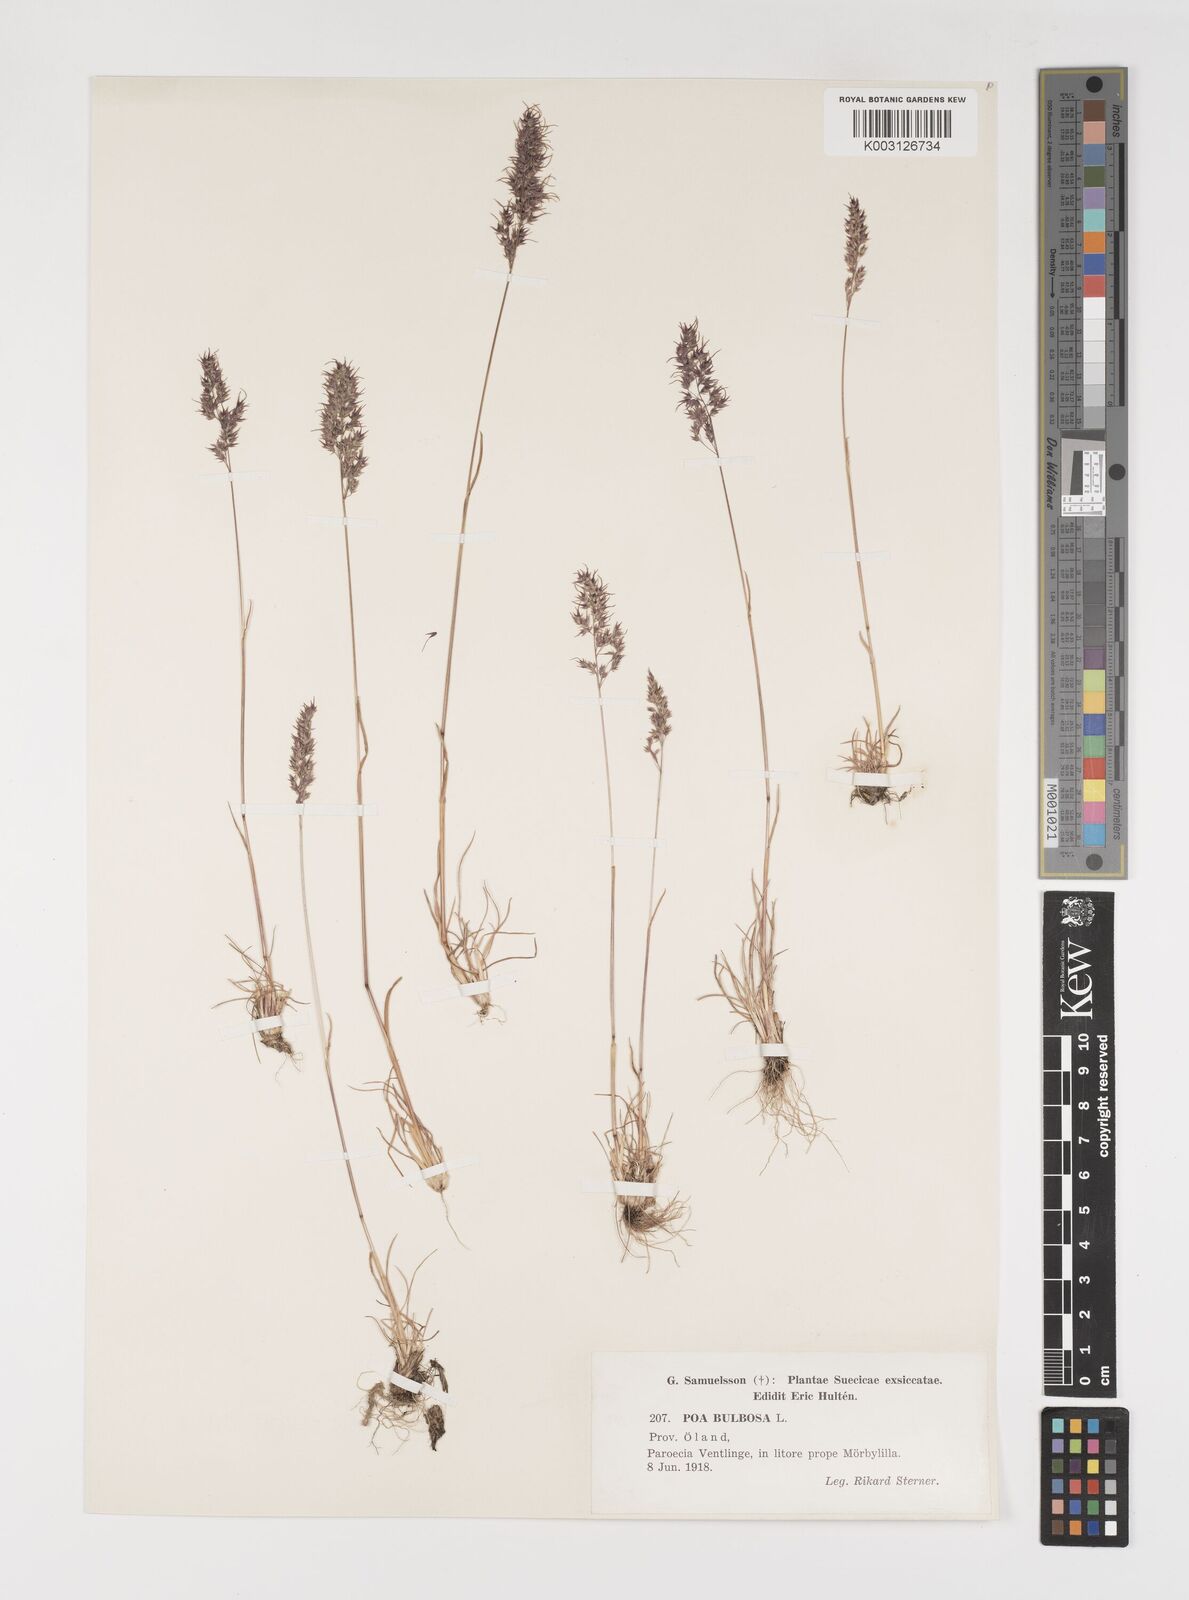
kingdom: Plantae
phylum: Tracheophyta
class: Liliopsida
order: Poales
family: Poaceae
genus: Poa
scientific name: Poa bulbosa
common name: Bulbous bluegrass
